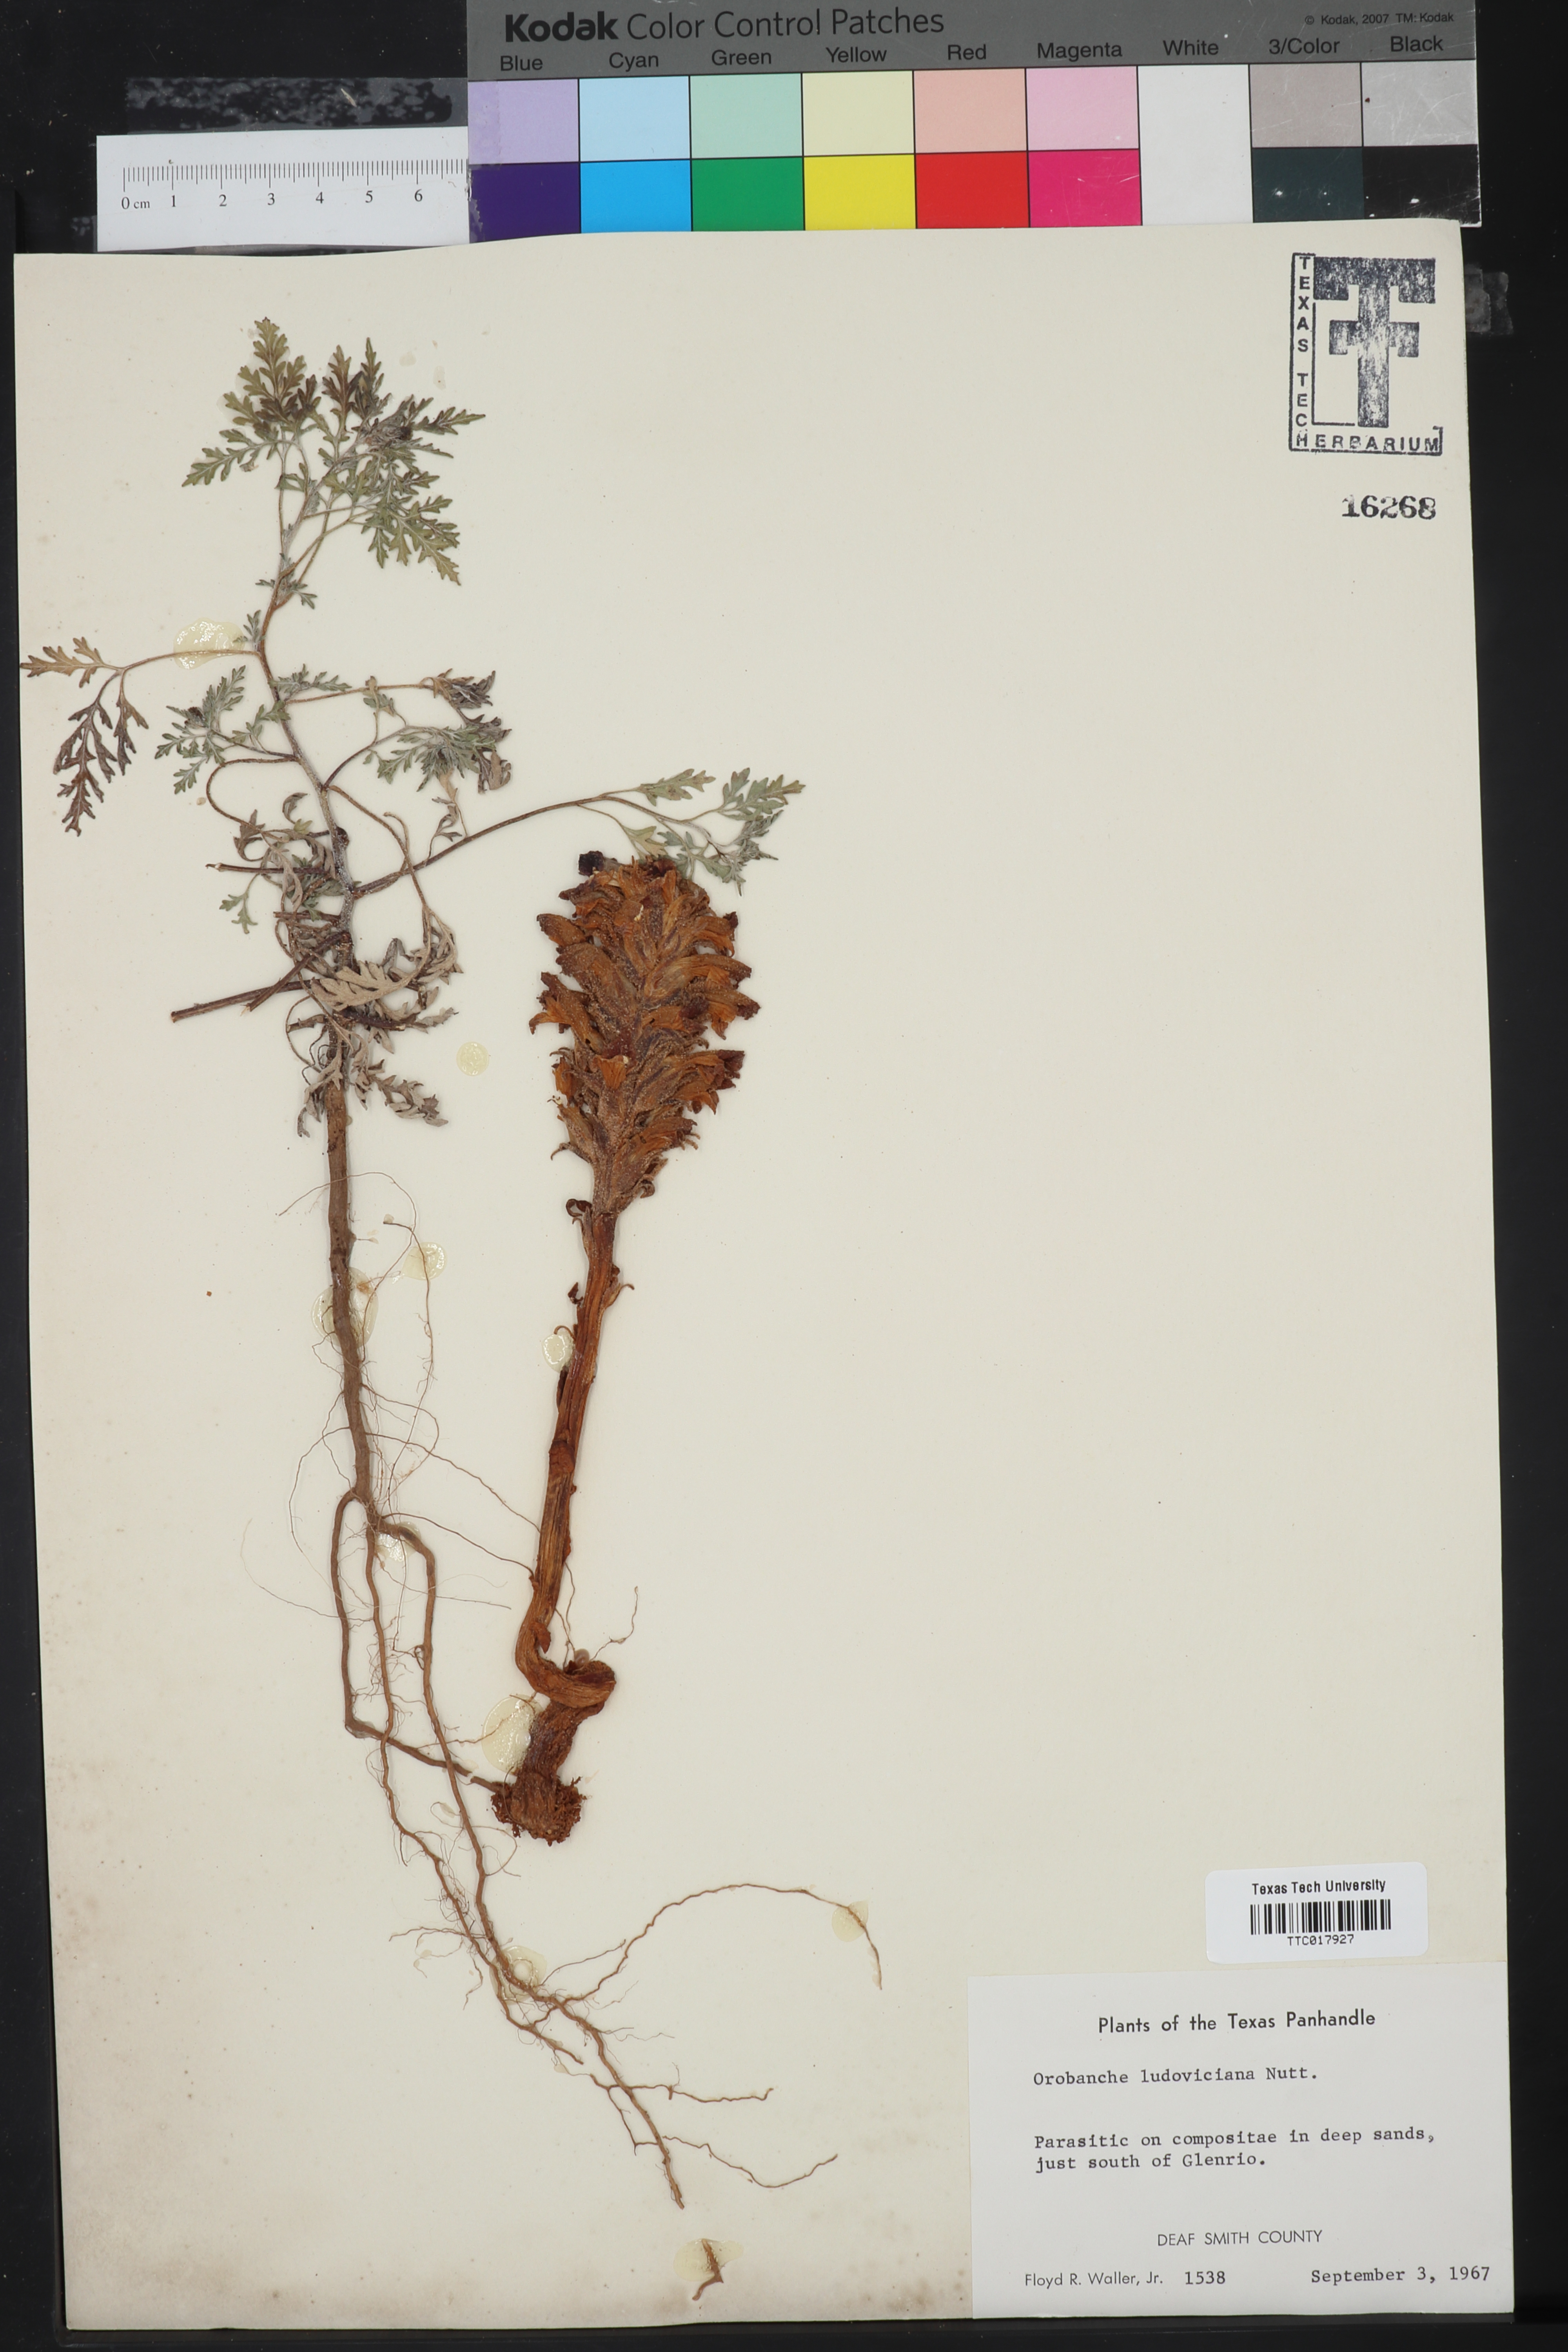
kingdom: Plantae
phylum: Tracheophyta
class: Magnoliopsida
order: Lamiales
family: Orobanchaceae
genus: Aphyllon
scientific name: Aphyllon ludovicianum
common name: Louisiana broomrape
